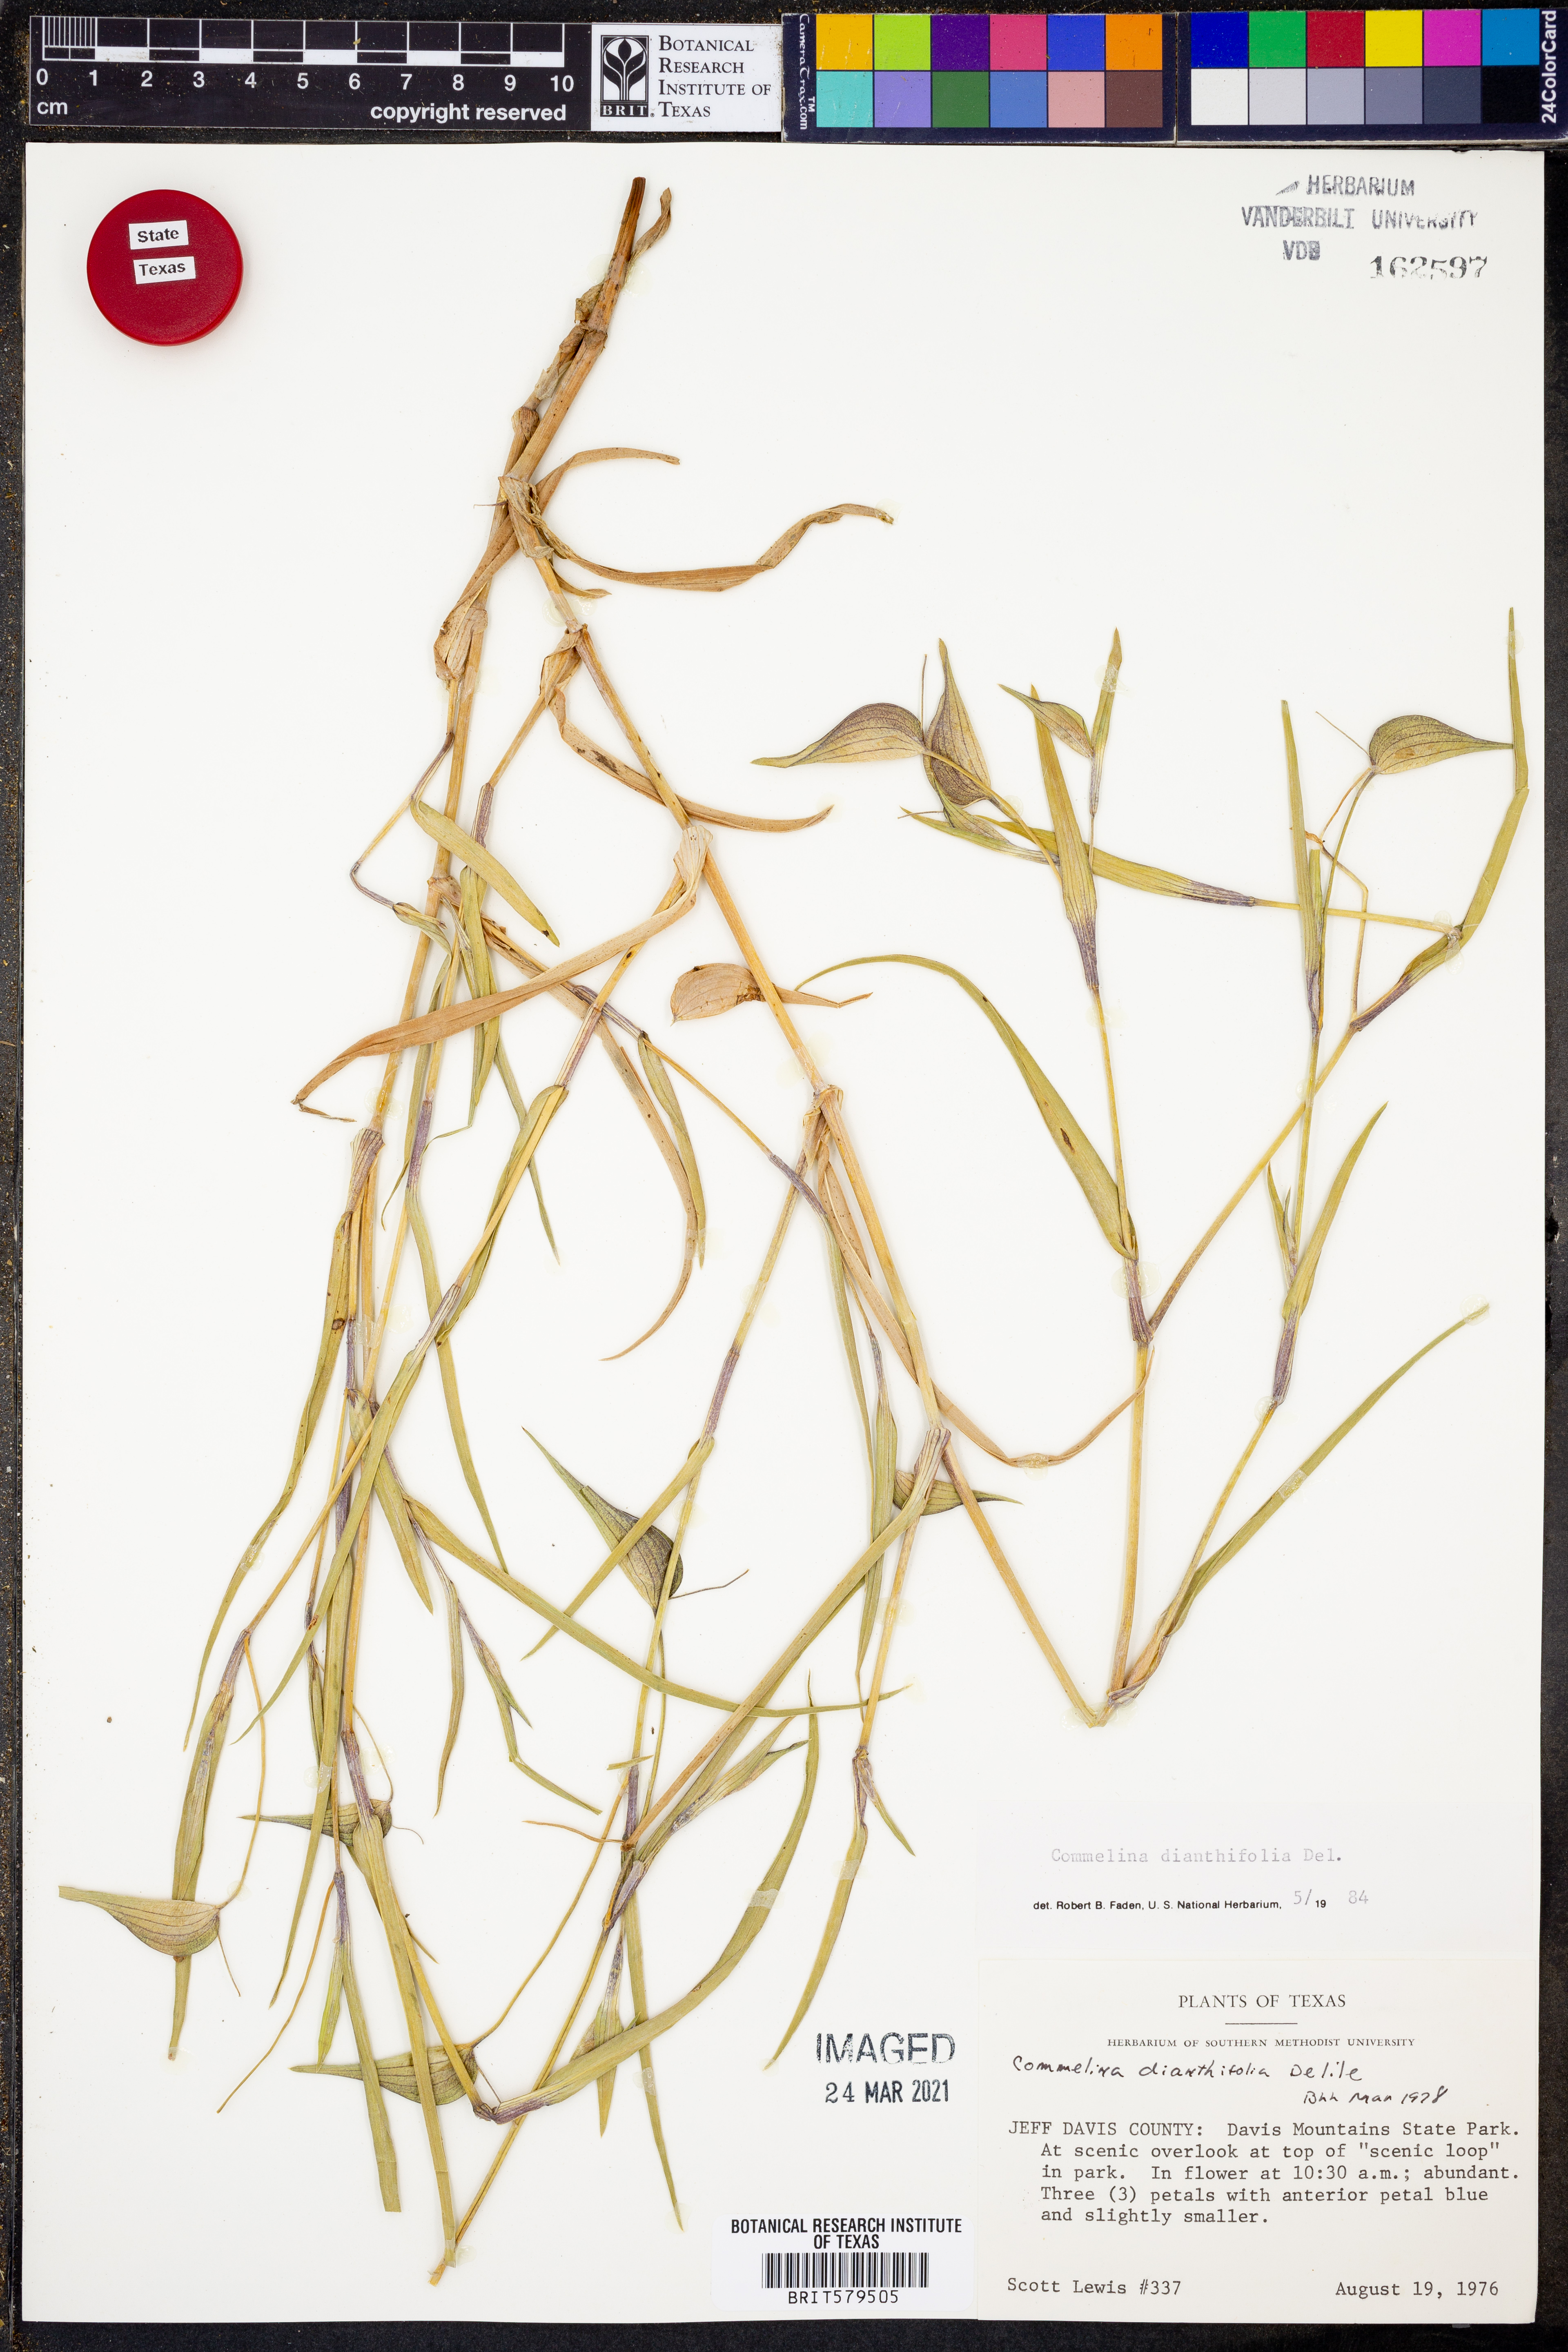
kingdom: Plantae
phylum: Tracheophyta
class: Liliopsida
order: Commelinales
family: Commelinaceae
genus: Commelina
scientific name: Commelina dianthifolia
